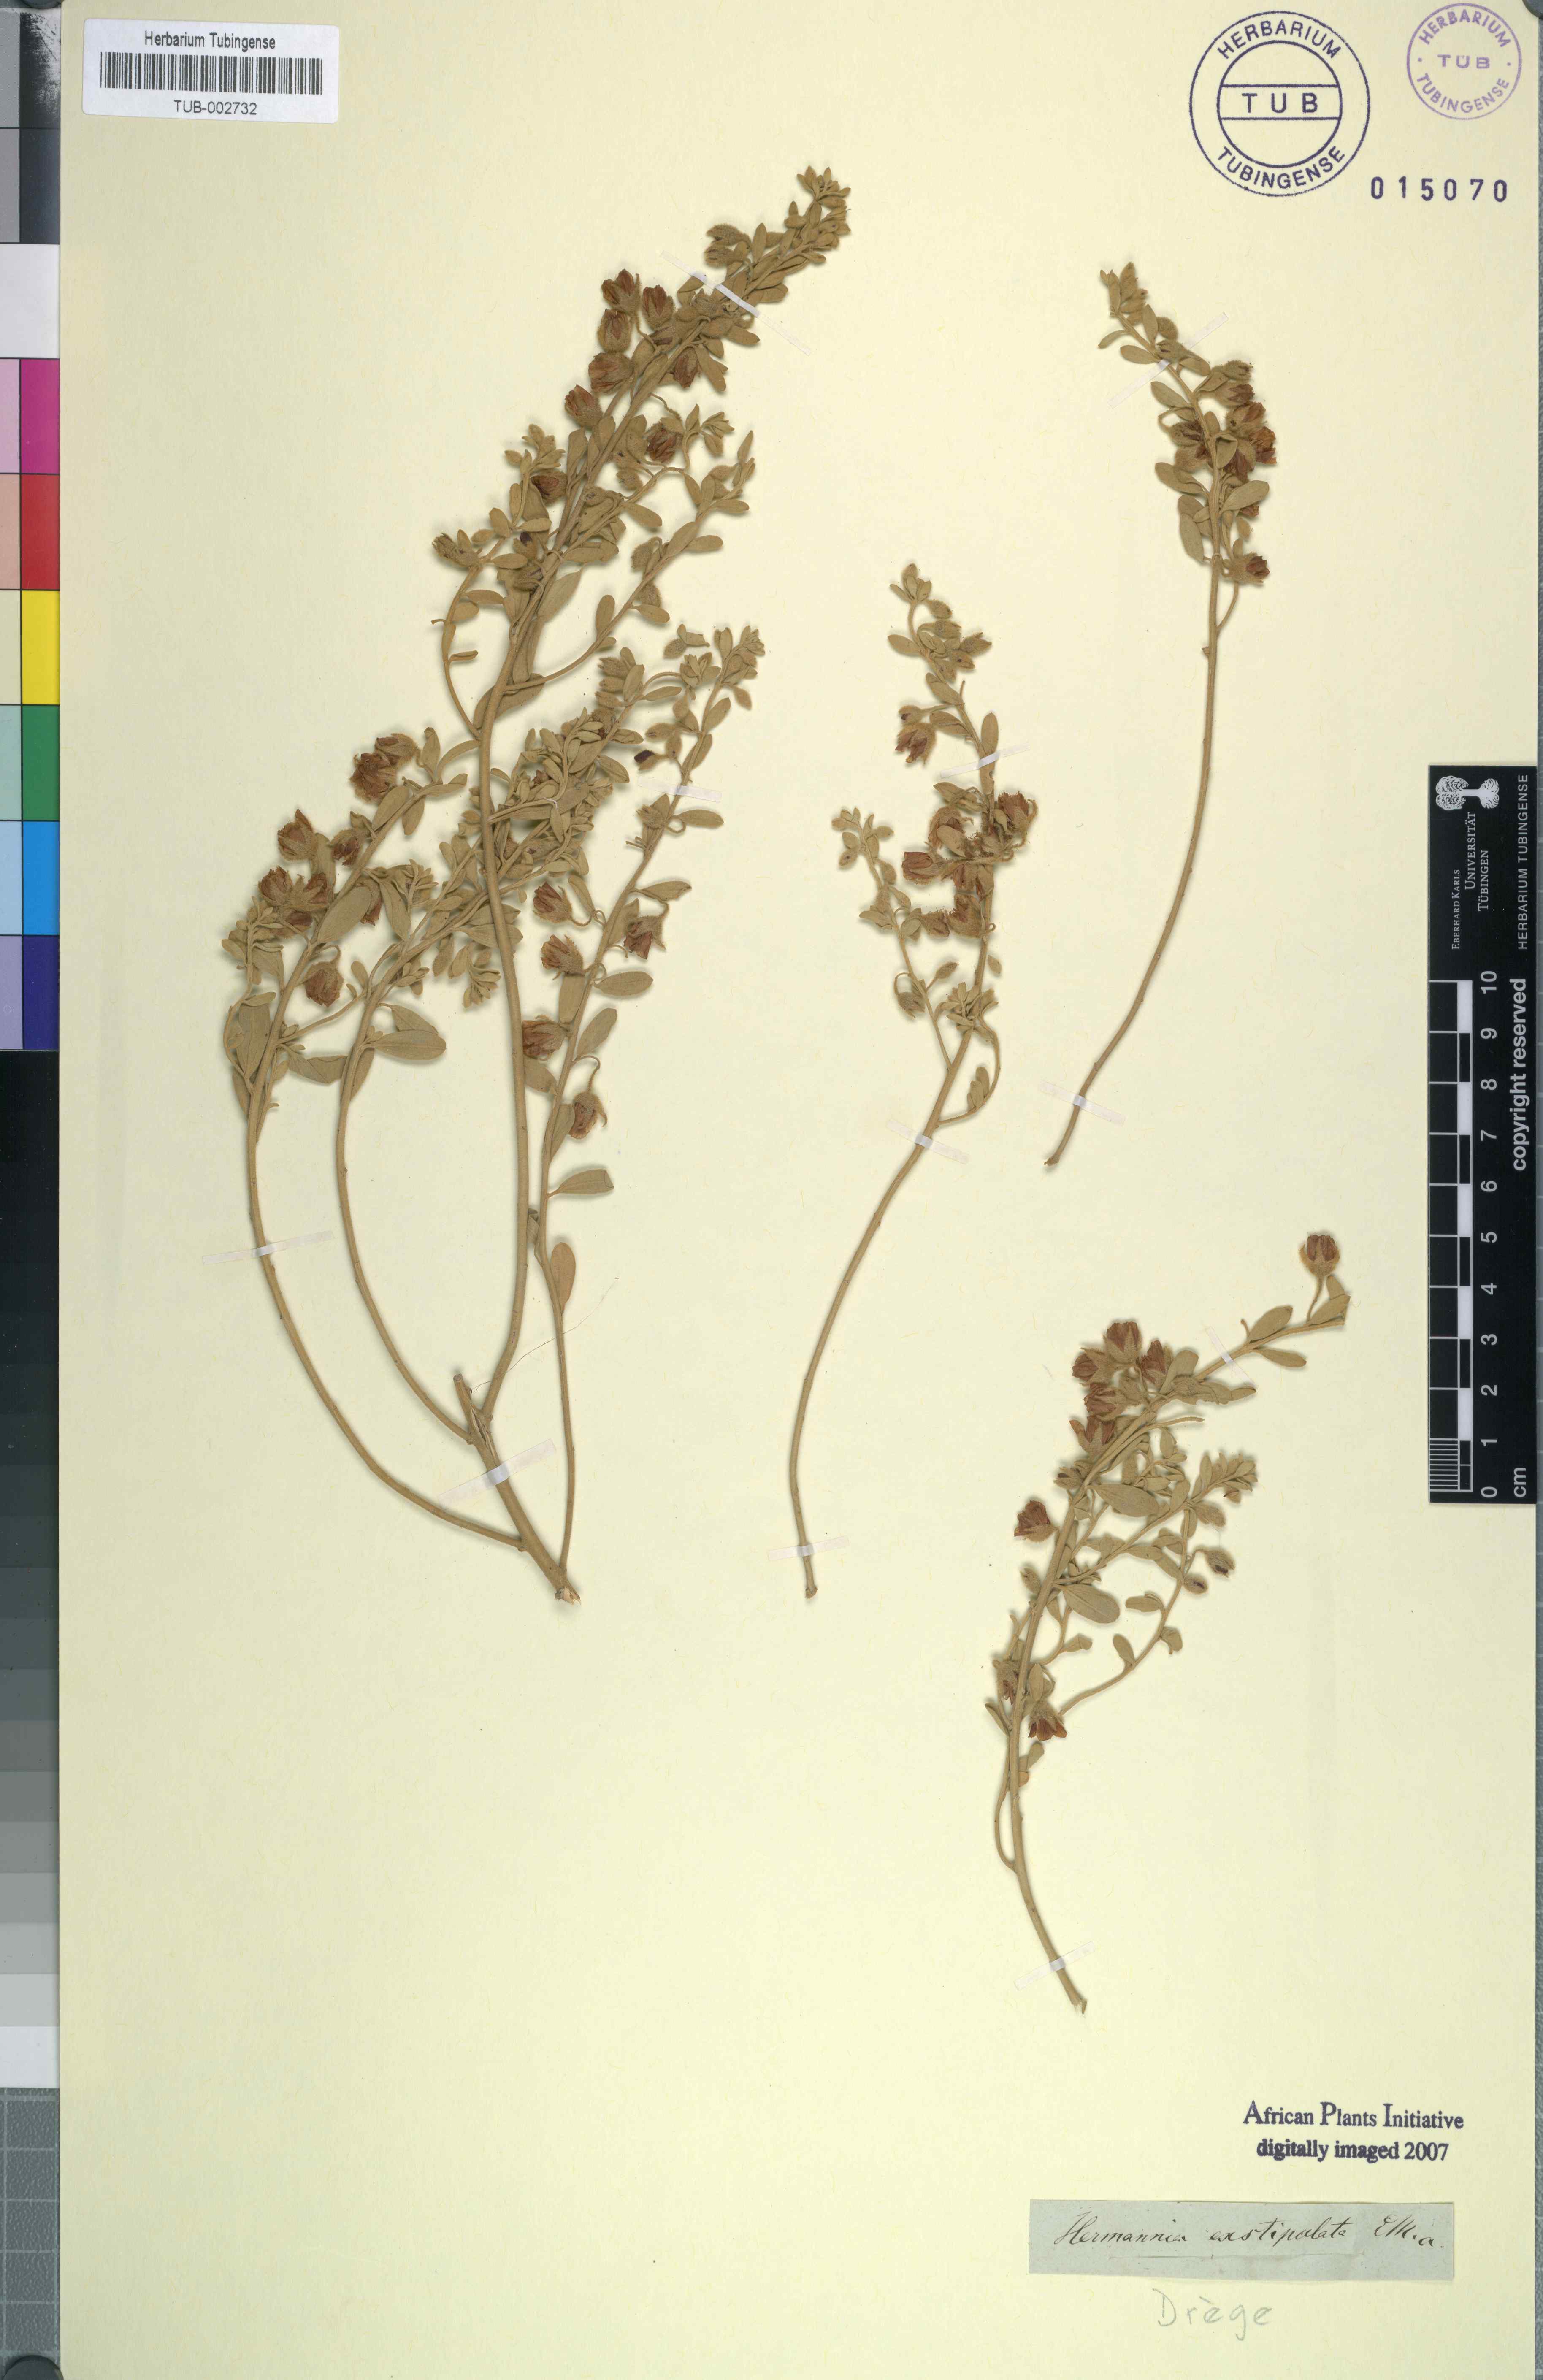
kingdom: Plantae
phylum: Tracheophyta
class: Magnoliopsida
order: Malvales
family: Malvaceae
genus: Hermannia
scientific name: Hermannia gariepina
